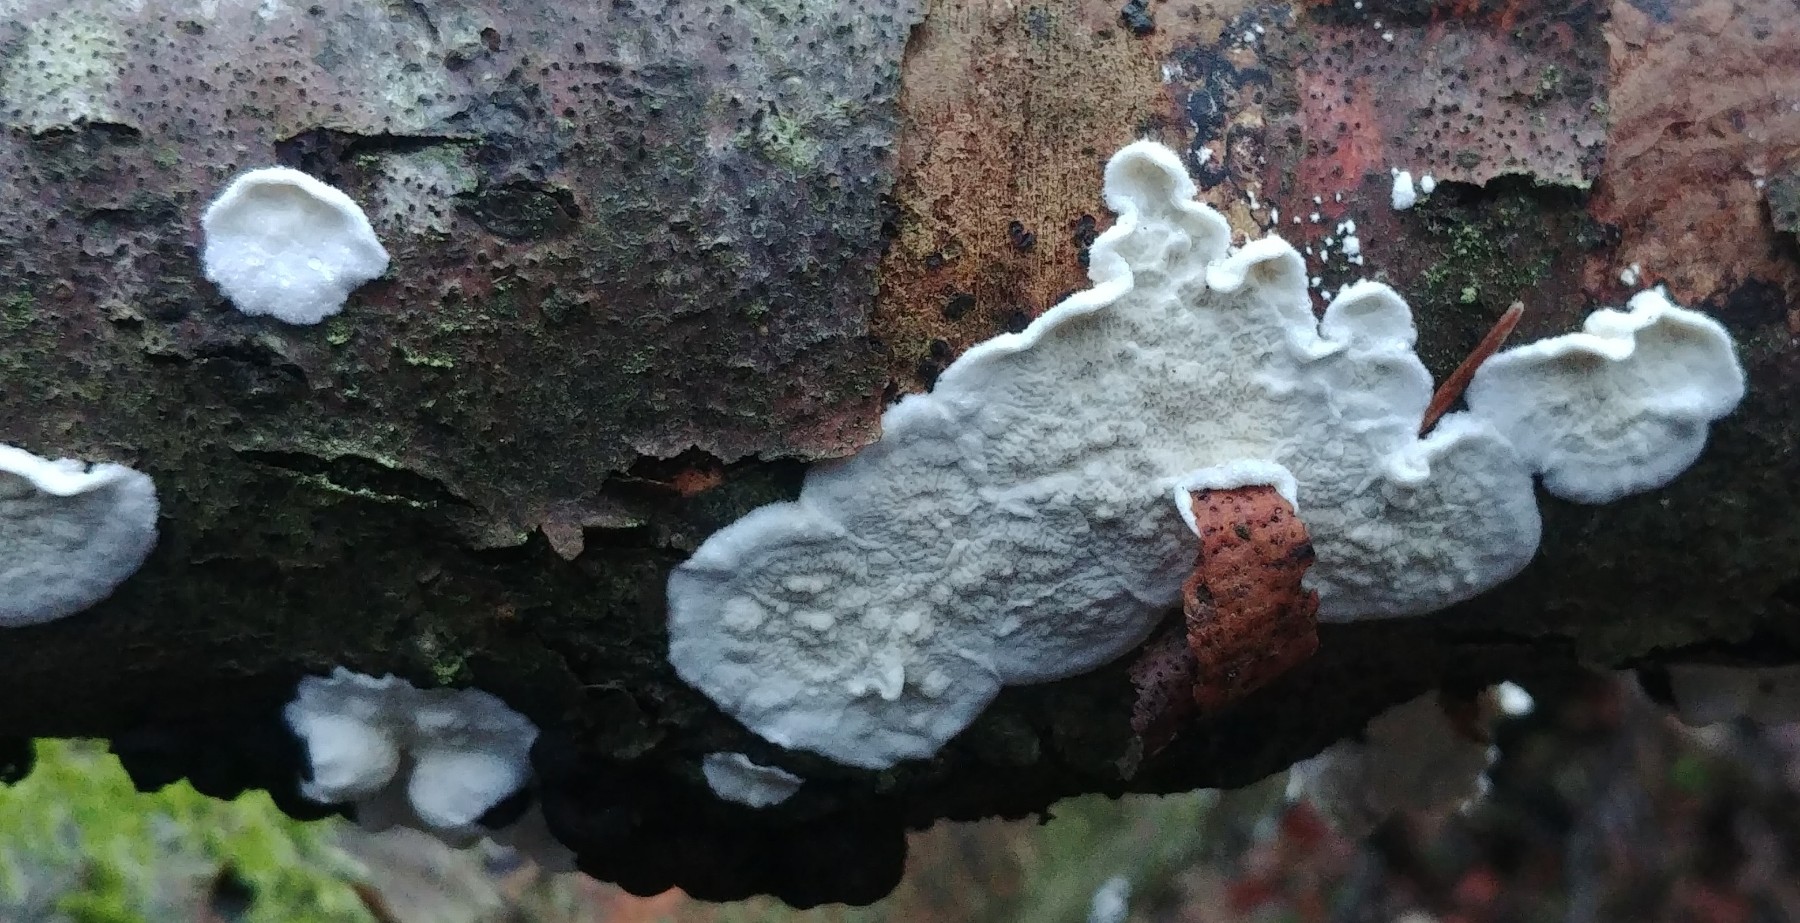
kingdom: Fungi
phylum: Basidiomycota
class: Agaricomycetes
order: Polyporales
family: Irpicaceae
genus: Byssomerulius
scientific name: Byssomerulius corium
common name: læder-åresvamp
